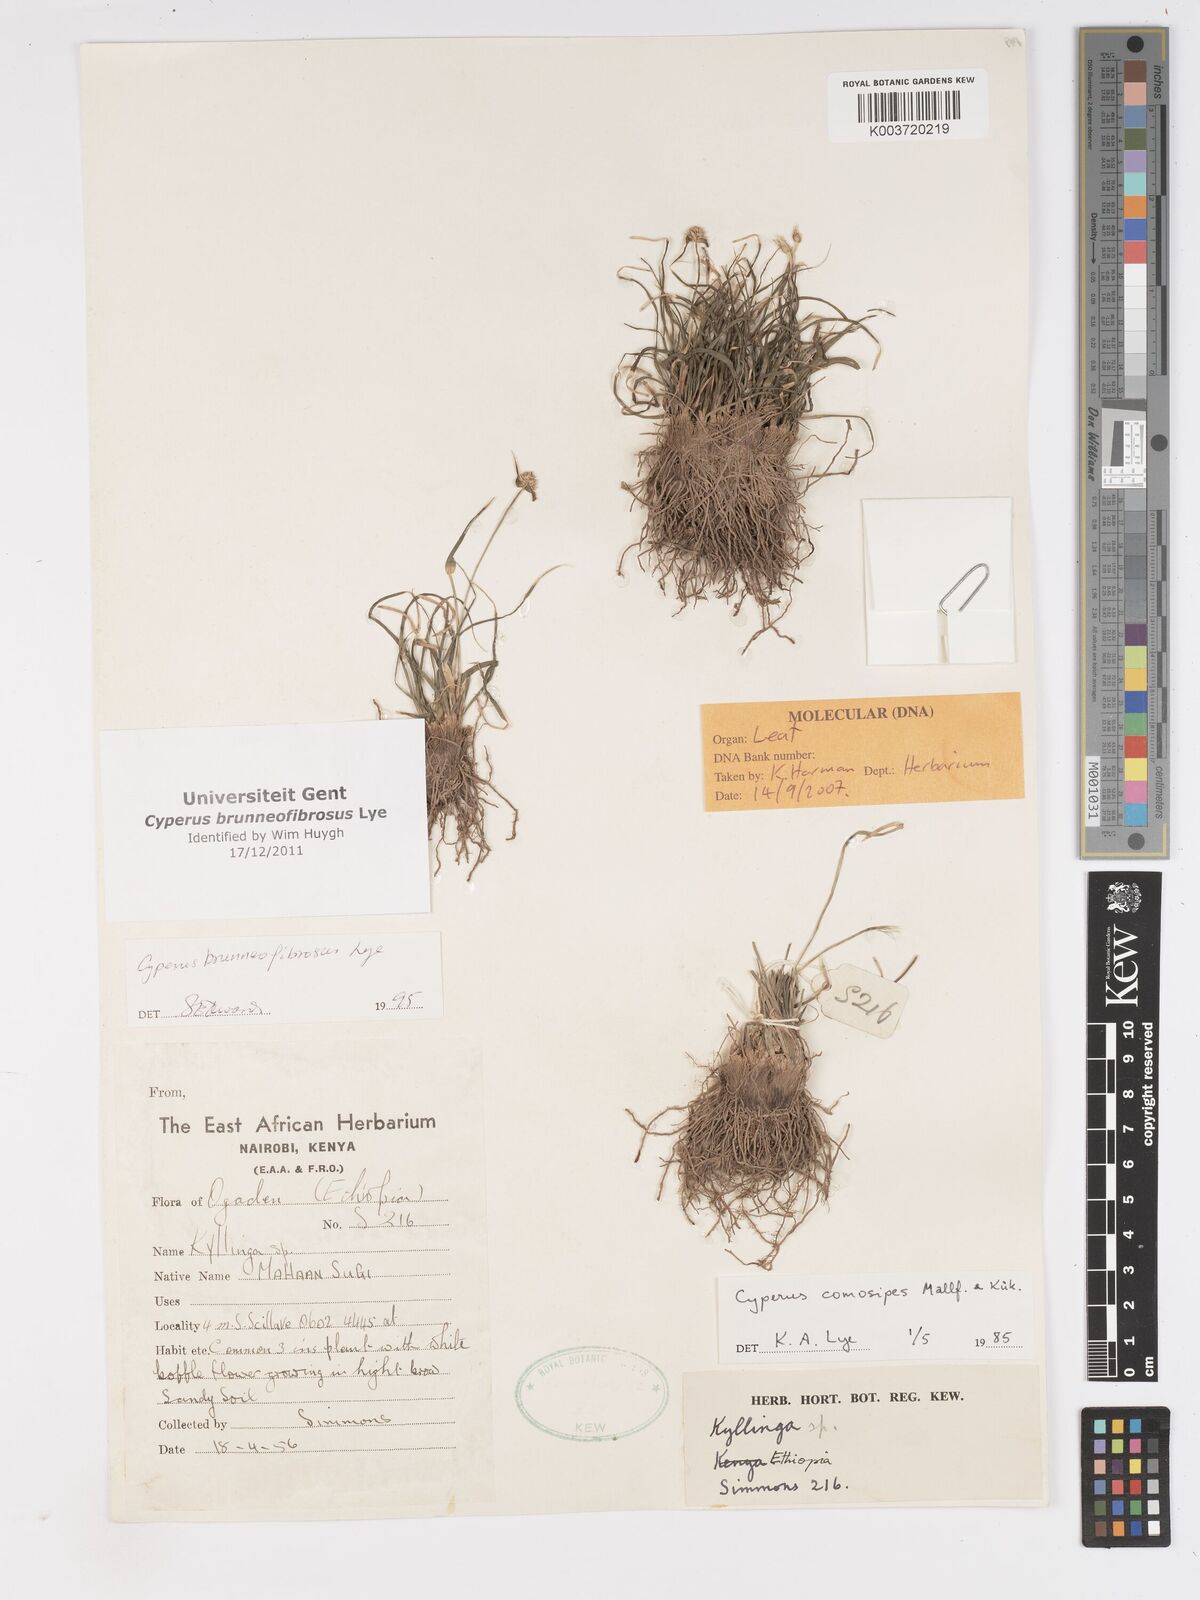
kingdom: Plantae
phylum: Tracheophyta
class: Liliopsida
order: Poales
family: Cyperaceae
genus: Cyperus
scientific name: Cyperus brunneofibrosus
